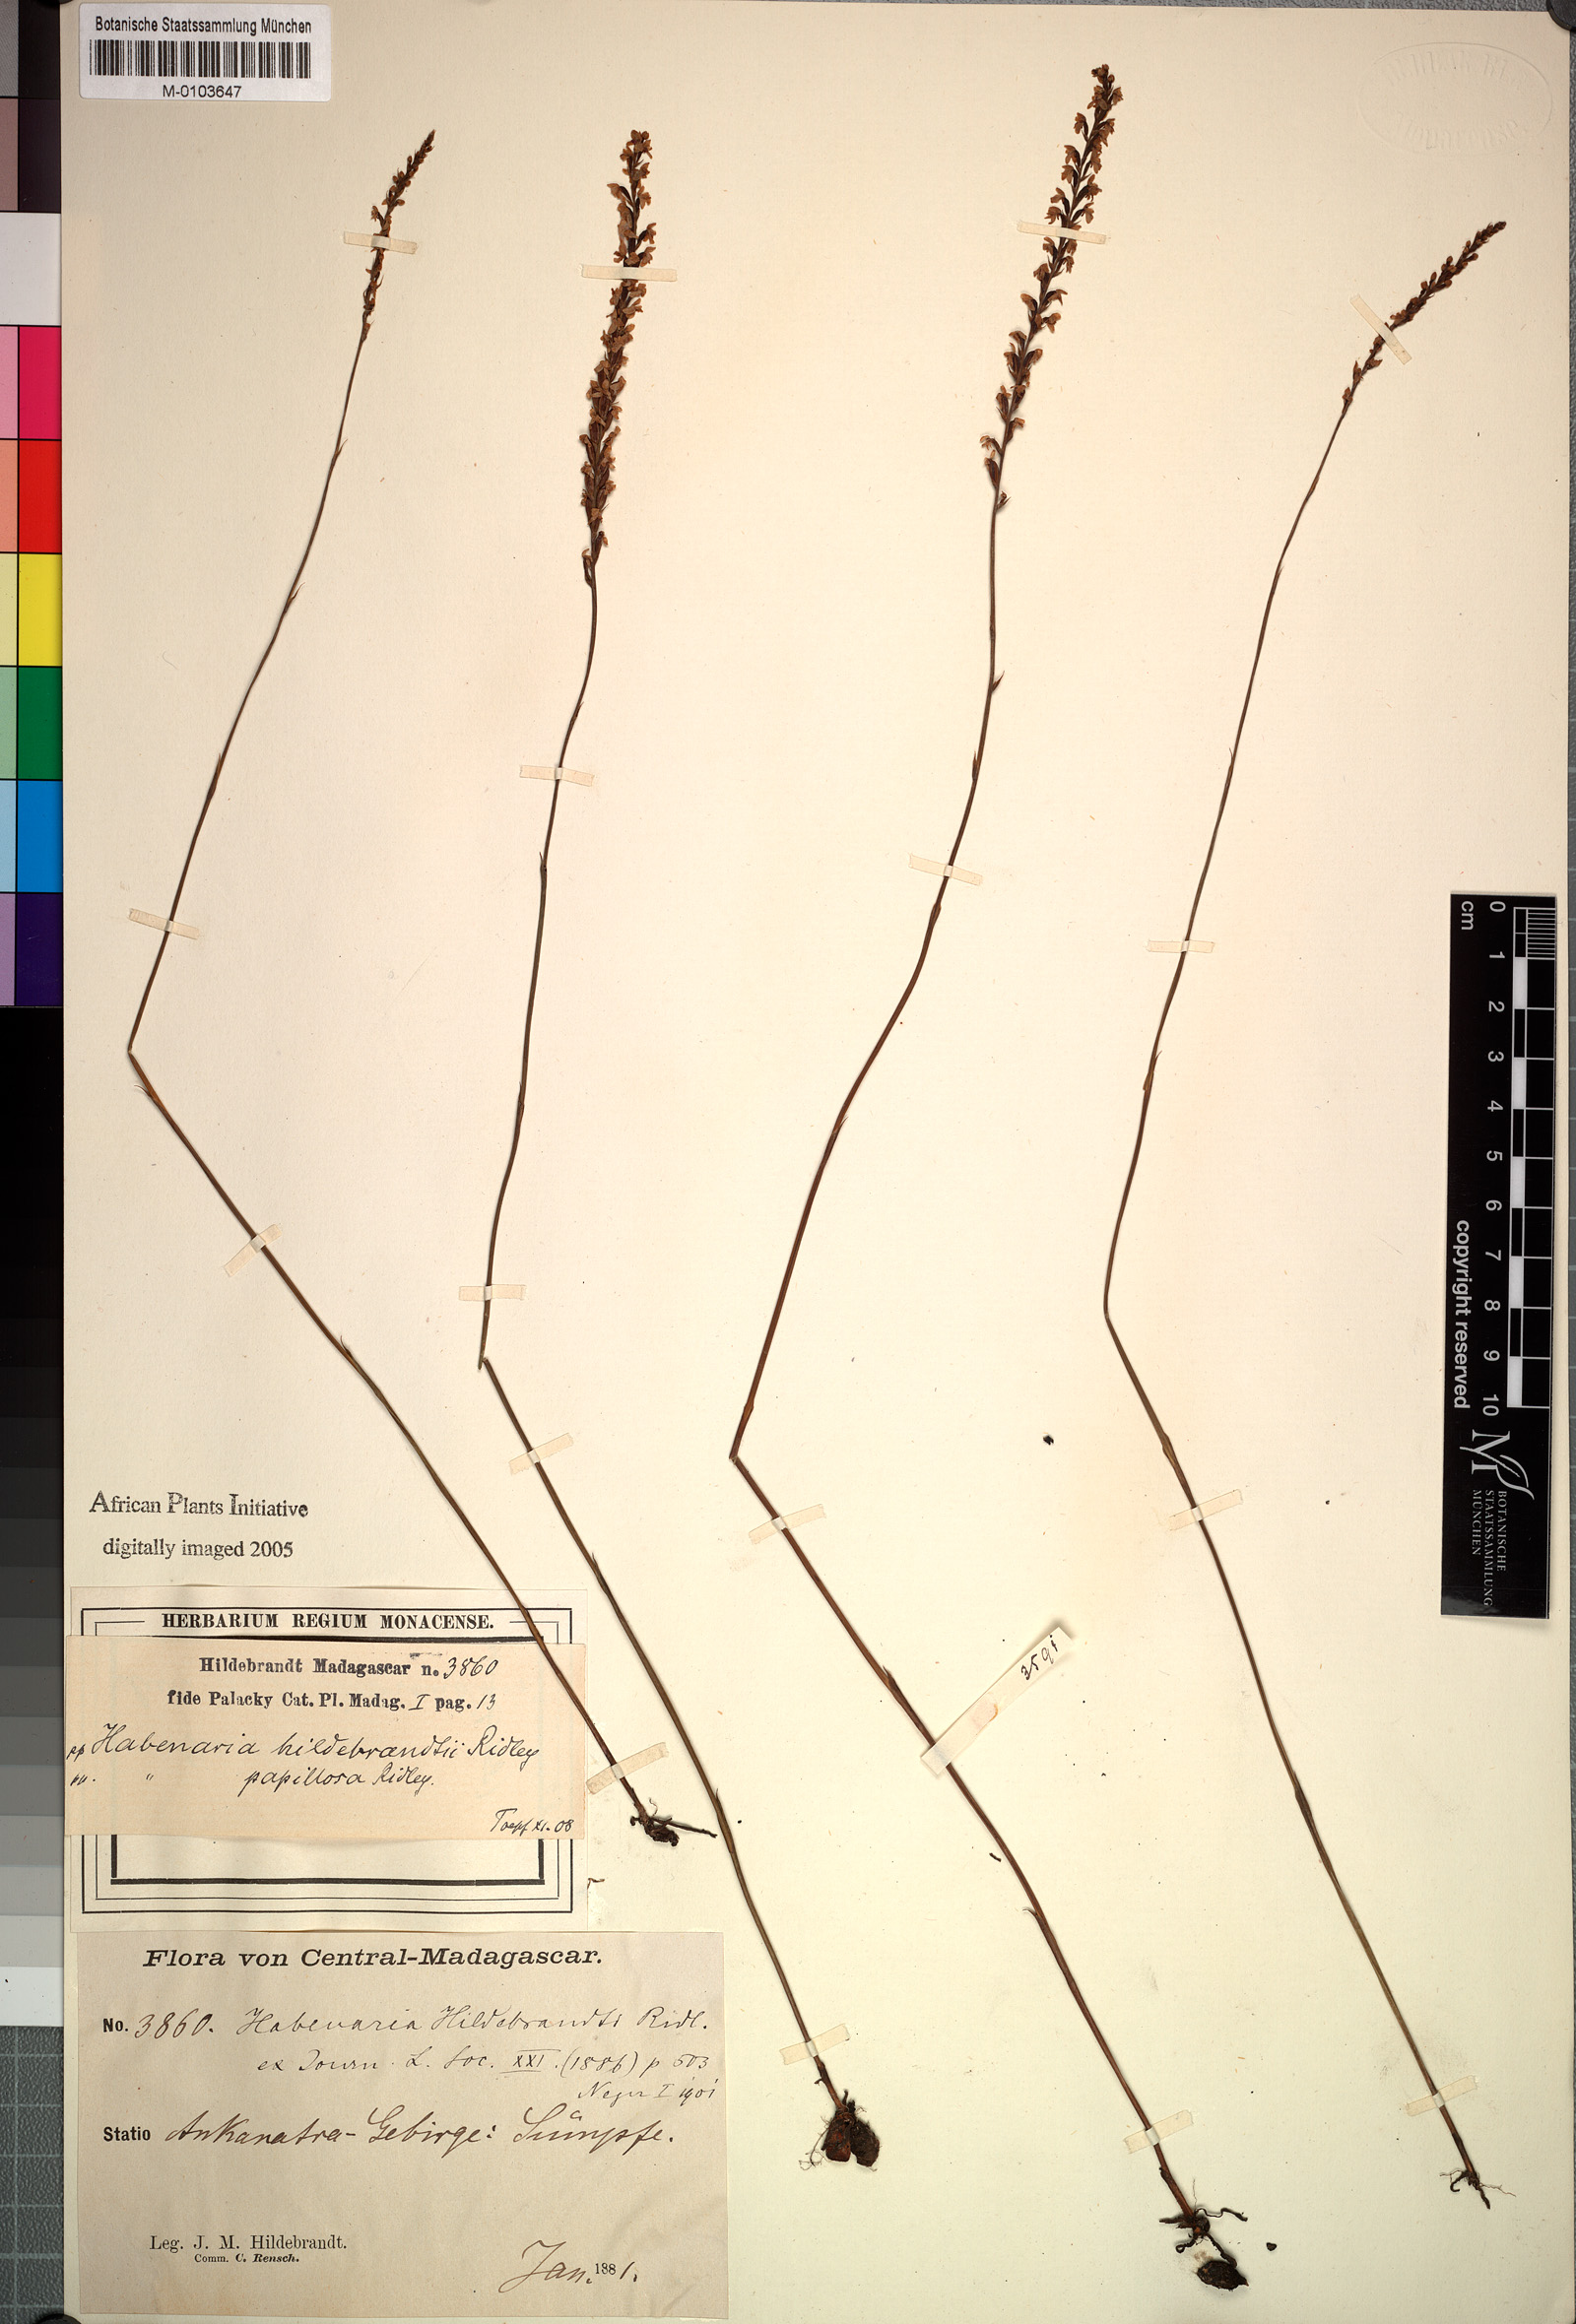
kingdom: Plantae
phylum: Tracheophyta
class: Liliopsida
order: Asparagales
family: Orchidaceae
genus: Tylostigma
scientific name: Tylostigma hildebrandtii
